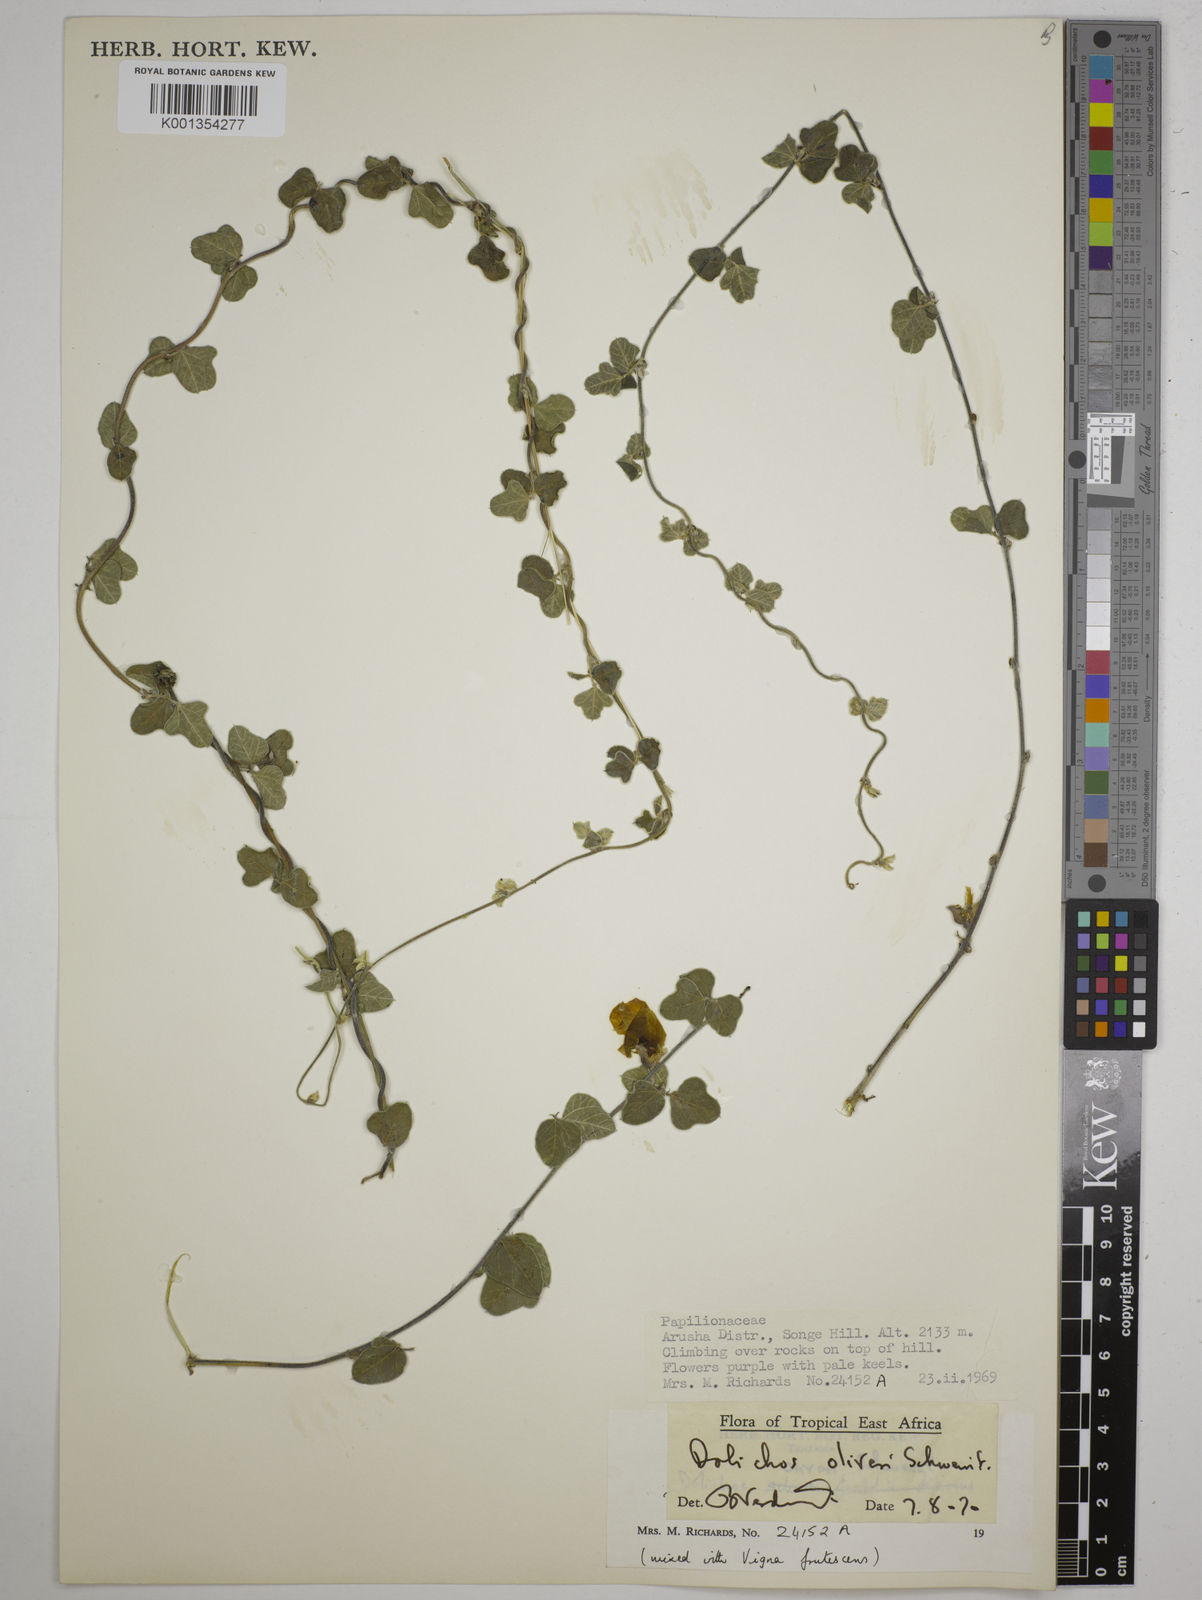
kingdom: Plantae
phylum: Tracheophyta
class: Magnoliopsida
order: Fabales
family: Fabaceae
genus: Dolichos
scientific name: Dolichos oliveri
